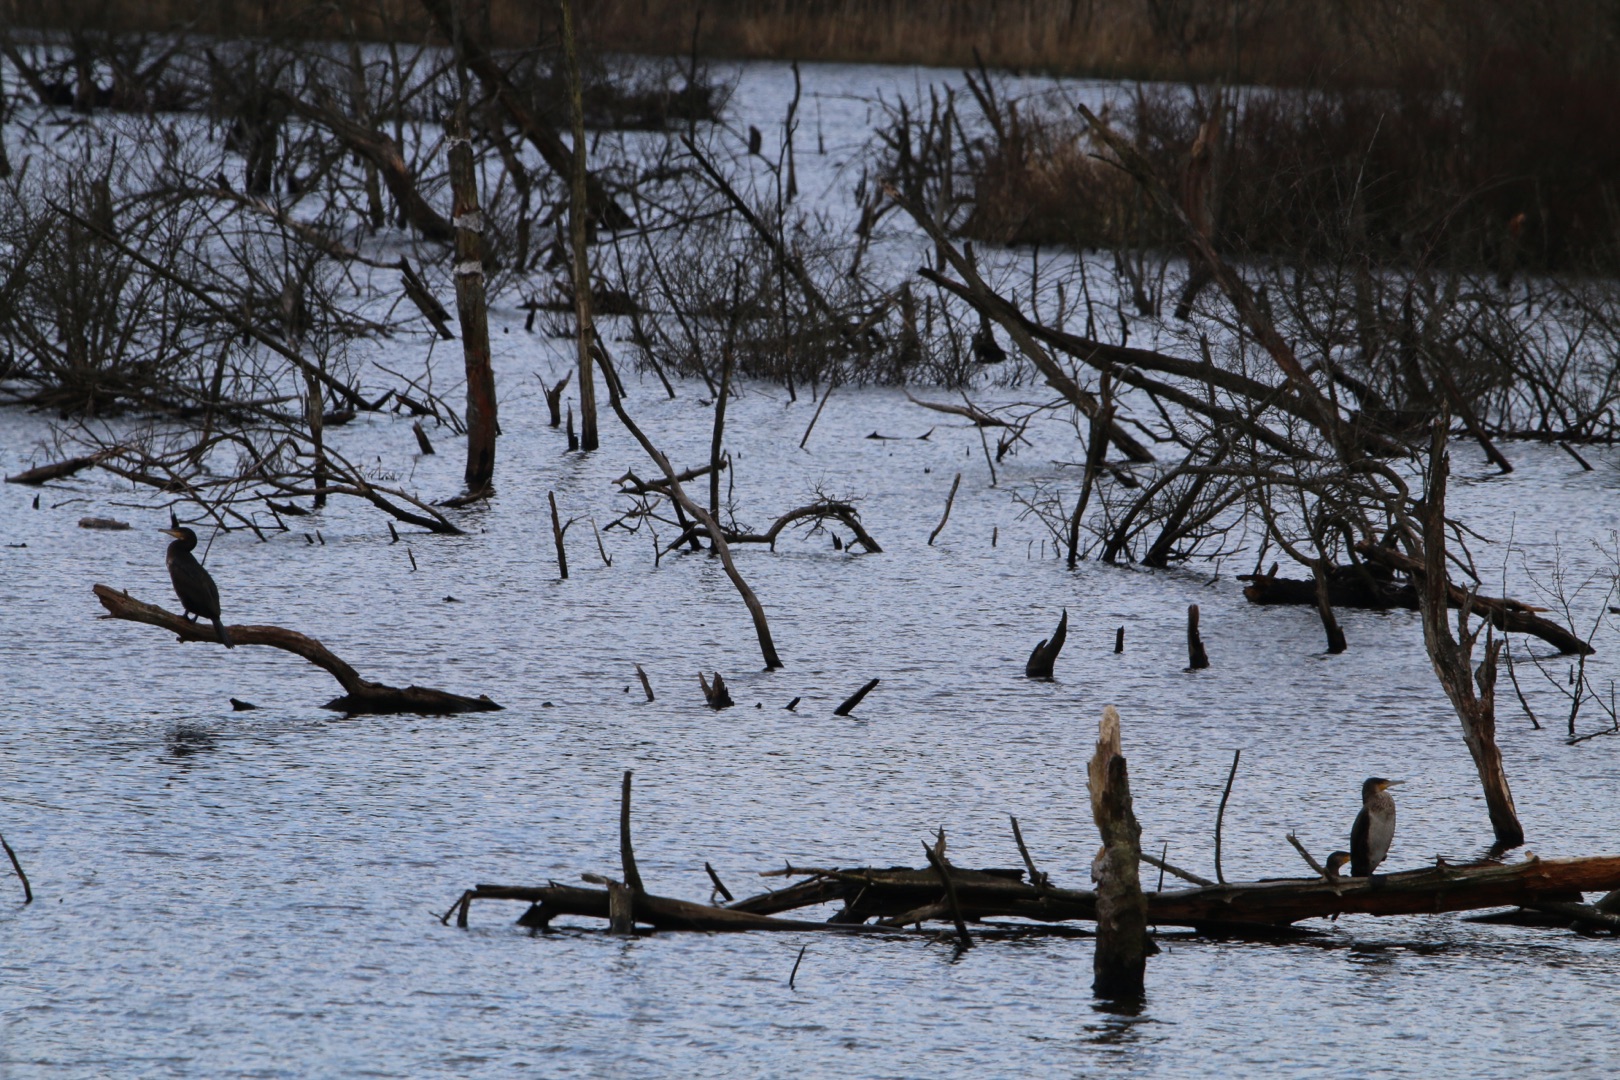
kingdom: Animalia
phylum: Chordata
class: Aves
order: Suliformes
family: Phalacrocoracidae
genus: Phalacrocorax
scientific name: Phalacrocorax carbo
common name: Skarv
